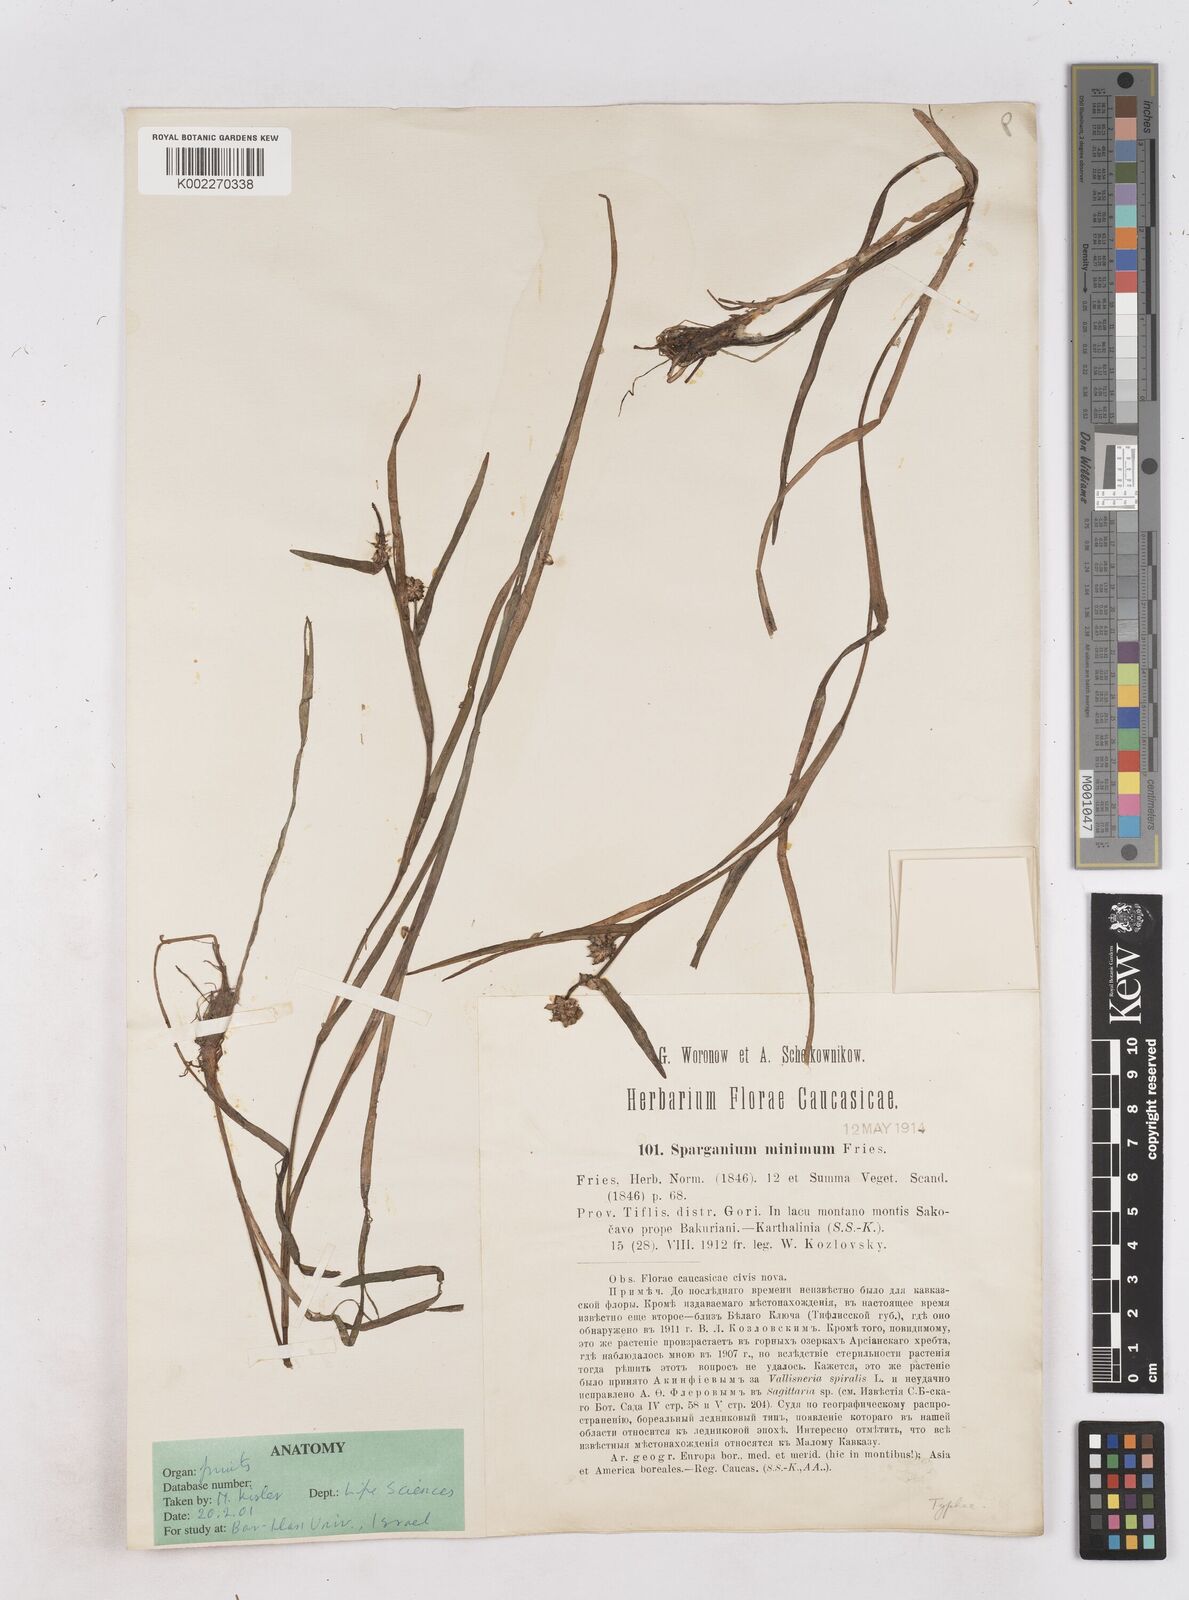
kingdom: Plantae
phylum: Tracheophyta
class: Liliopsida
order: Poales
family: Typhaceae
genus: Sparganium
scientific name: Sparganium natans
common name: Least bur-reed
